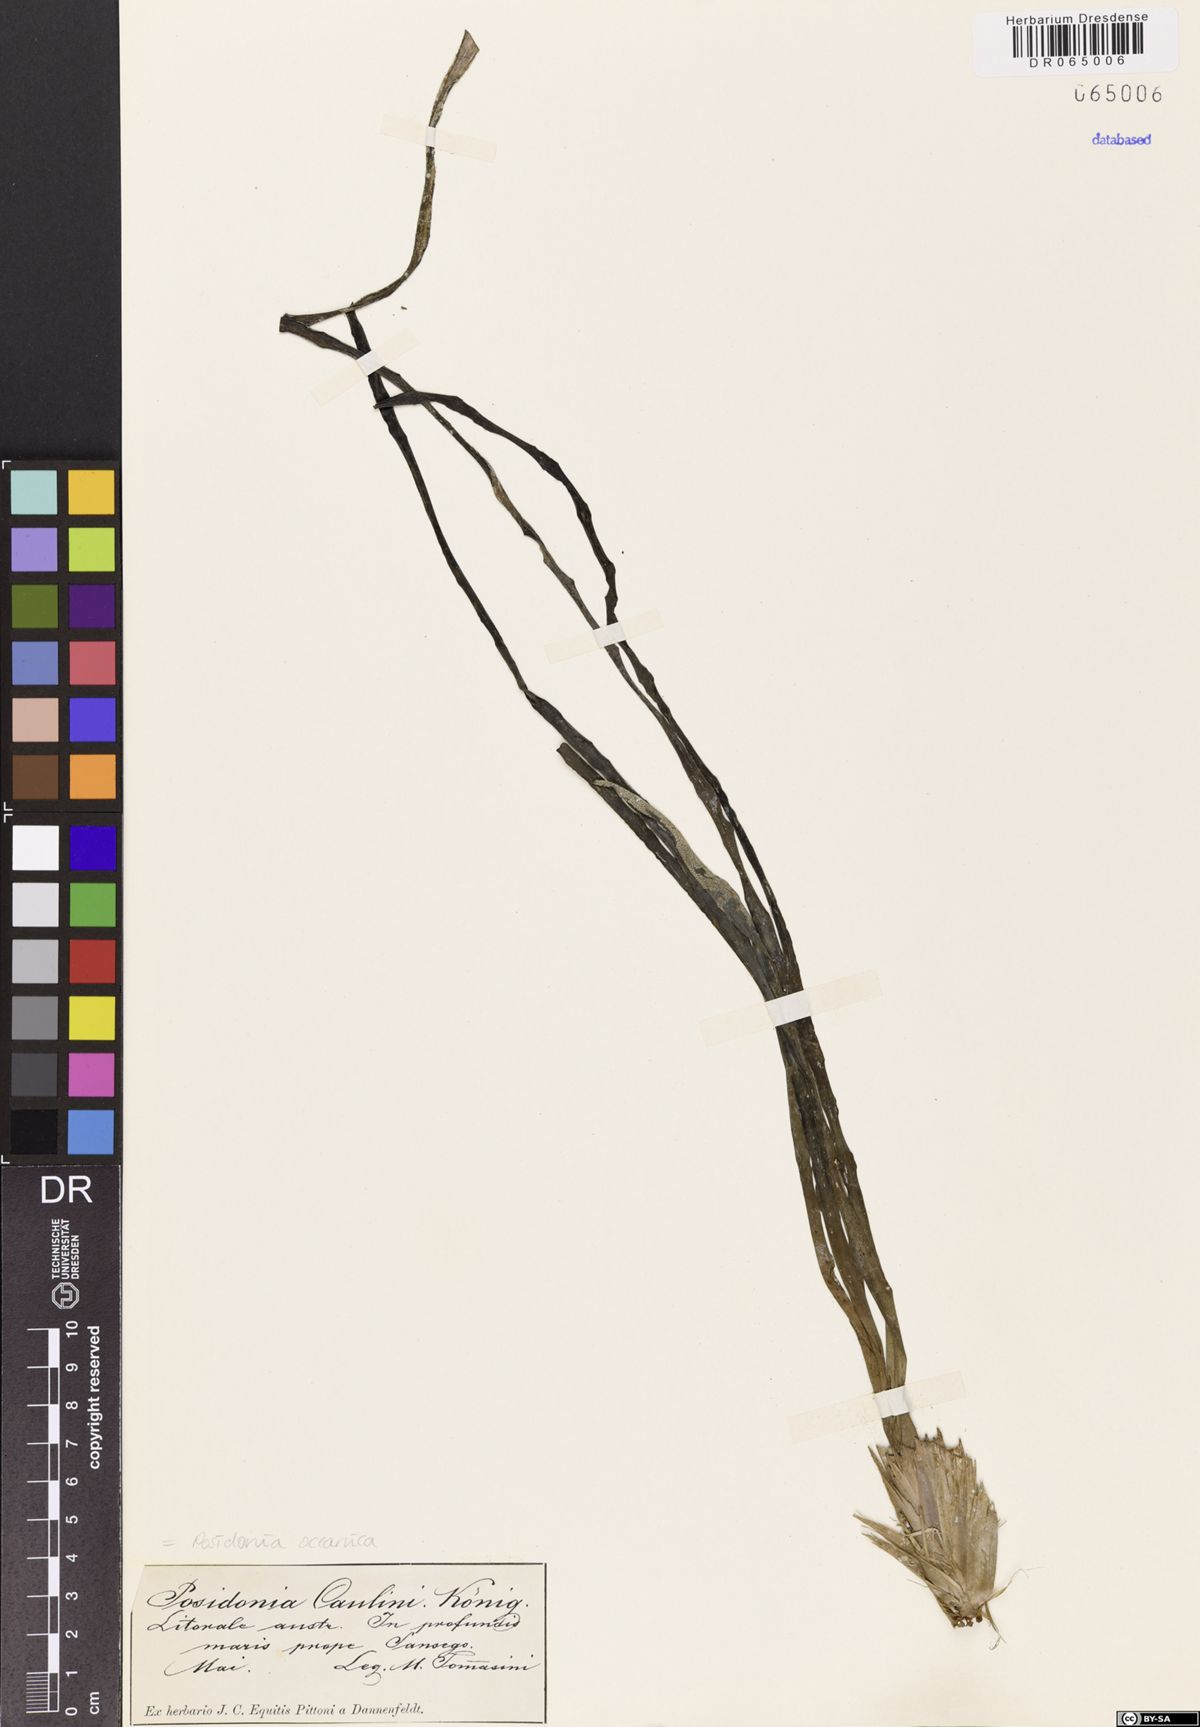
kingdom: Plantae
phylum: Tracheophyta
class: Liliopsida
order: Alismatales
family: Posidoniaceae
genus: Posidonia
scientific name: Posidonia oceanica
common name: Mediterranean tapeweed
